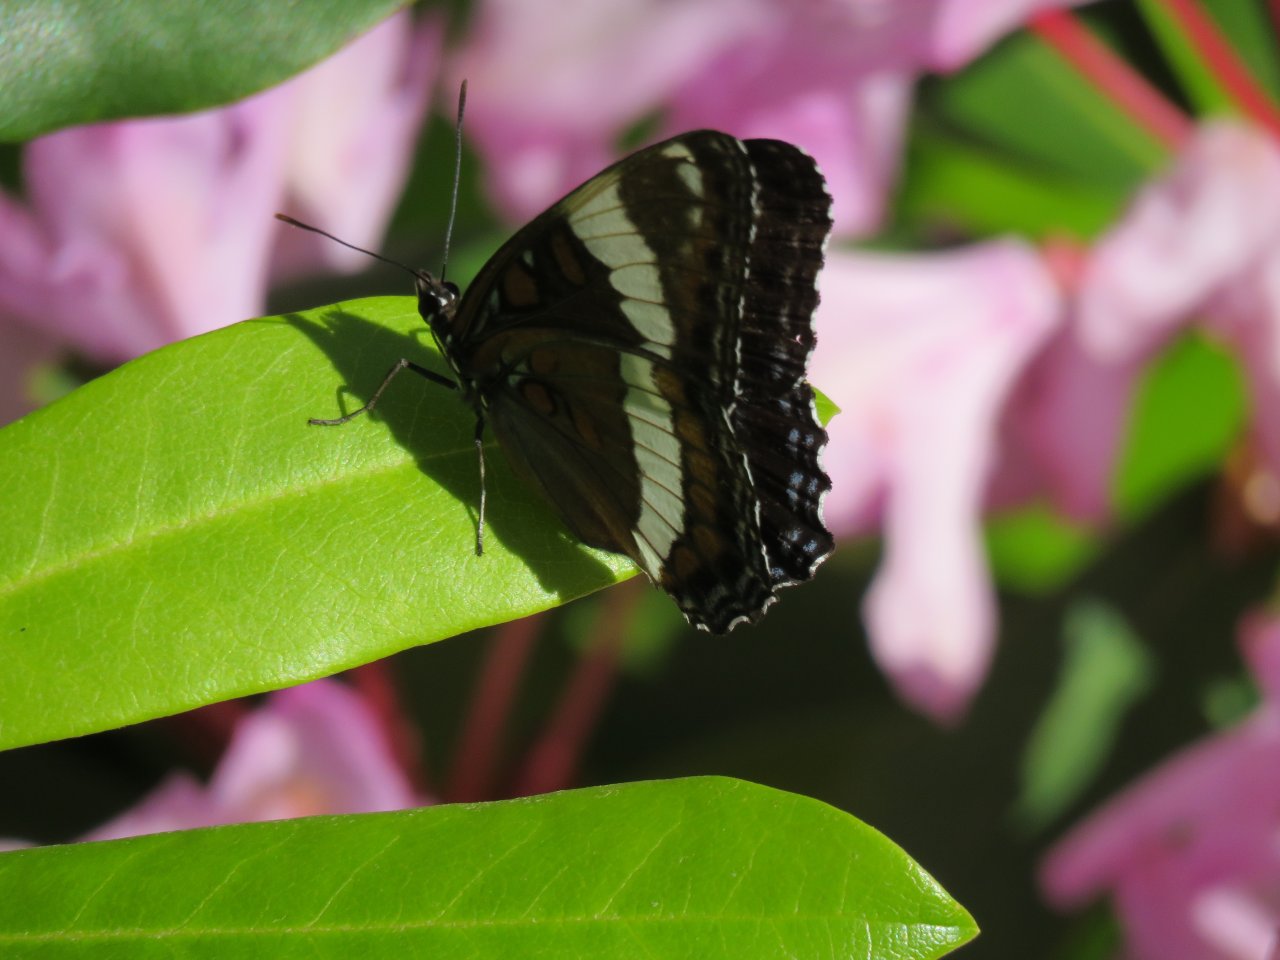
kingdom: Animalia
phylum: Arthropoda
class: Insecta
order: Lepidoptera
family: Nymphalidae
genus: Limenitis
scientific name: Limenitis arthemis
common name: Red-spotted Admiral
